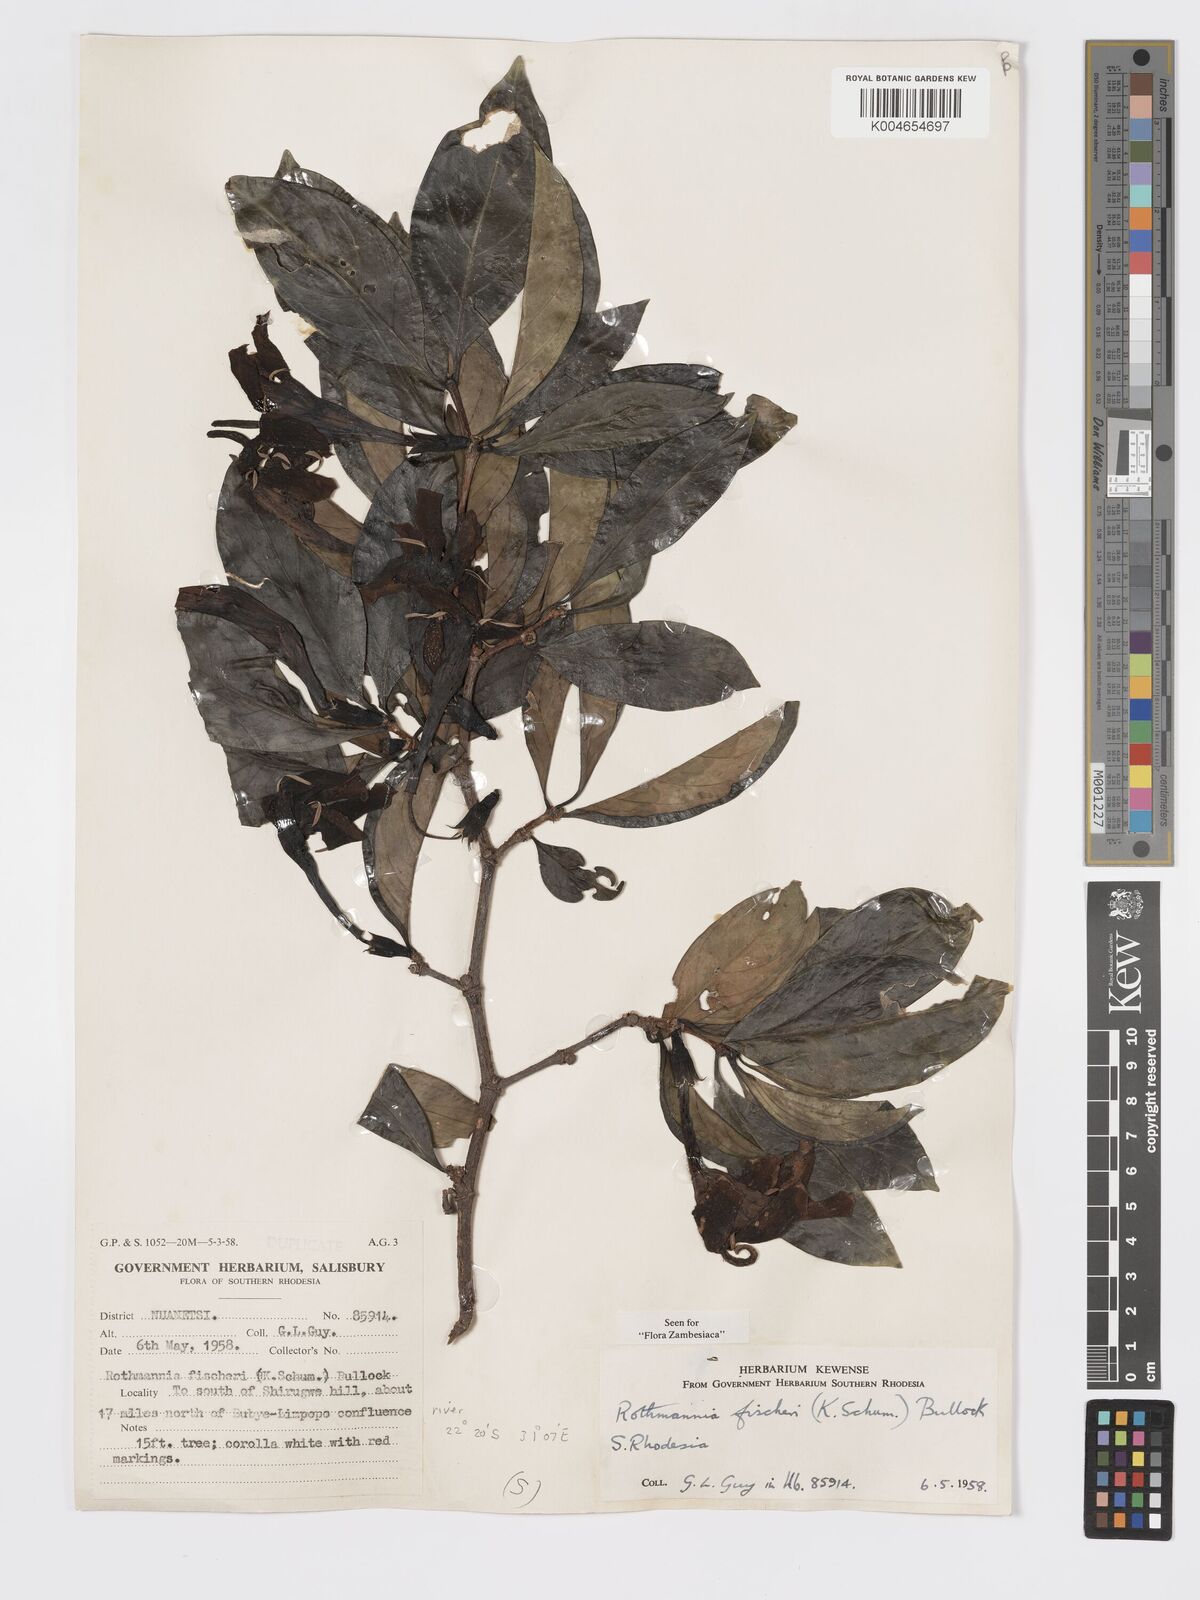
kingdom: Plantae
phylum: Tracheophyta
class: Magnoliopsida
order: Gentianales
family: Rubiaceae
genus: Rothmannia
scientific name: Rothmannia fischeri
